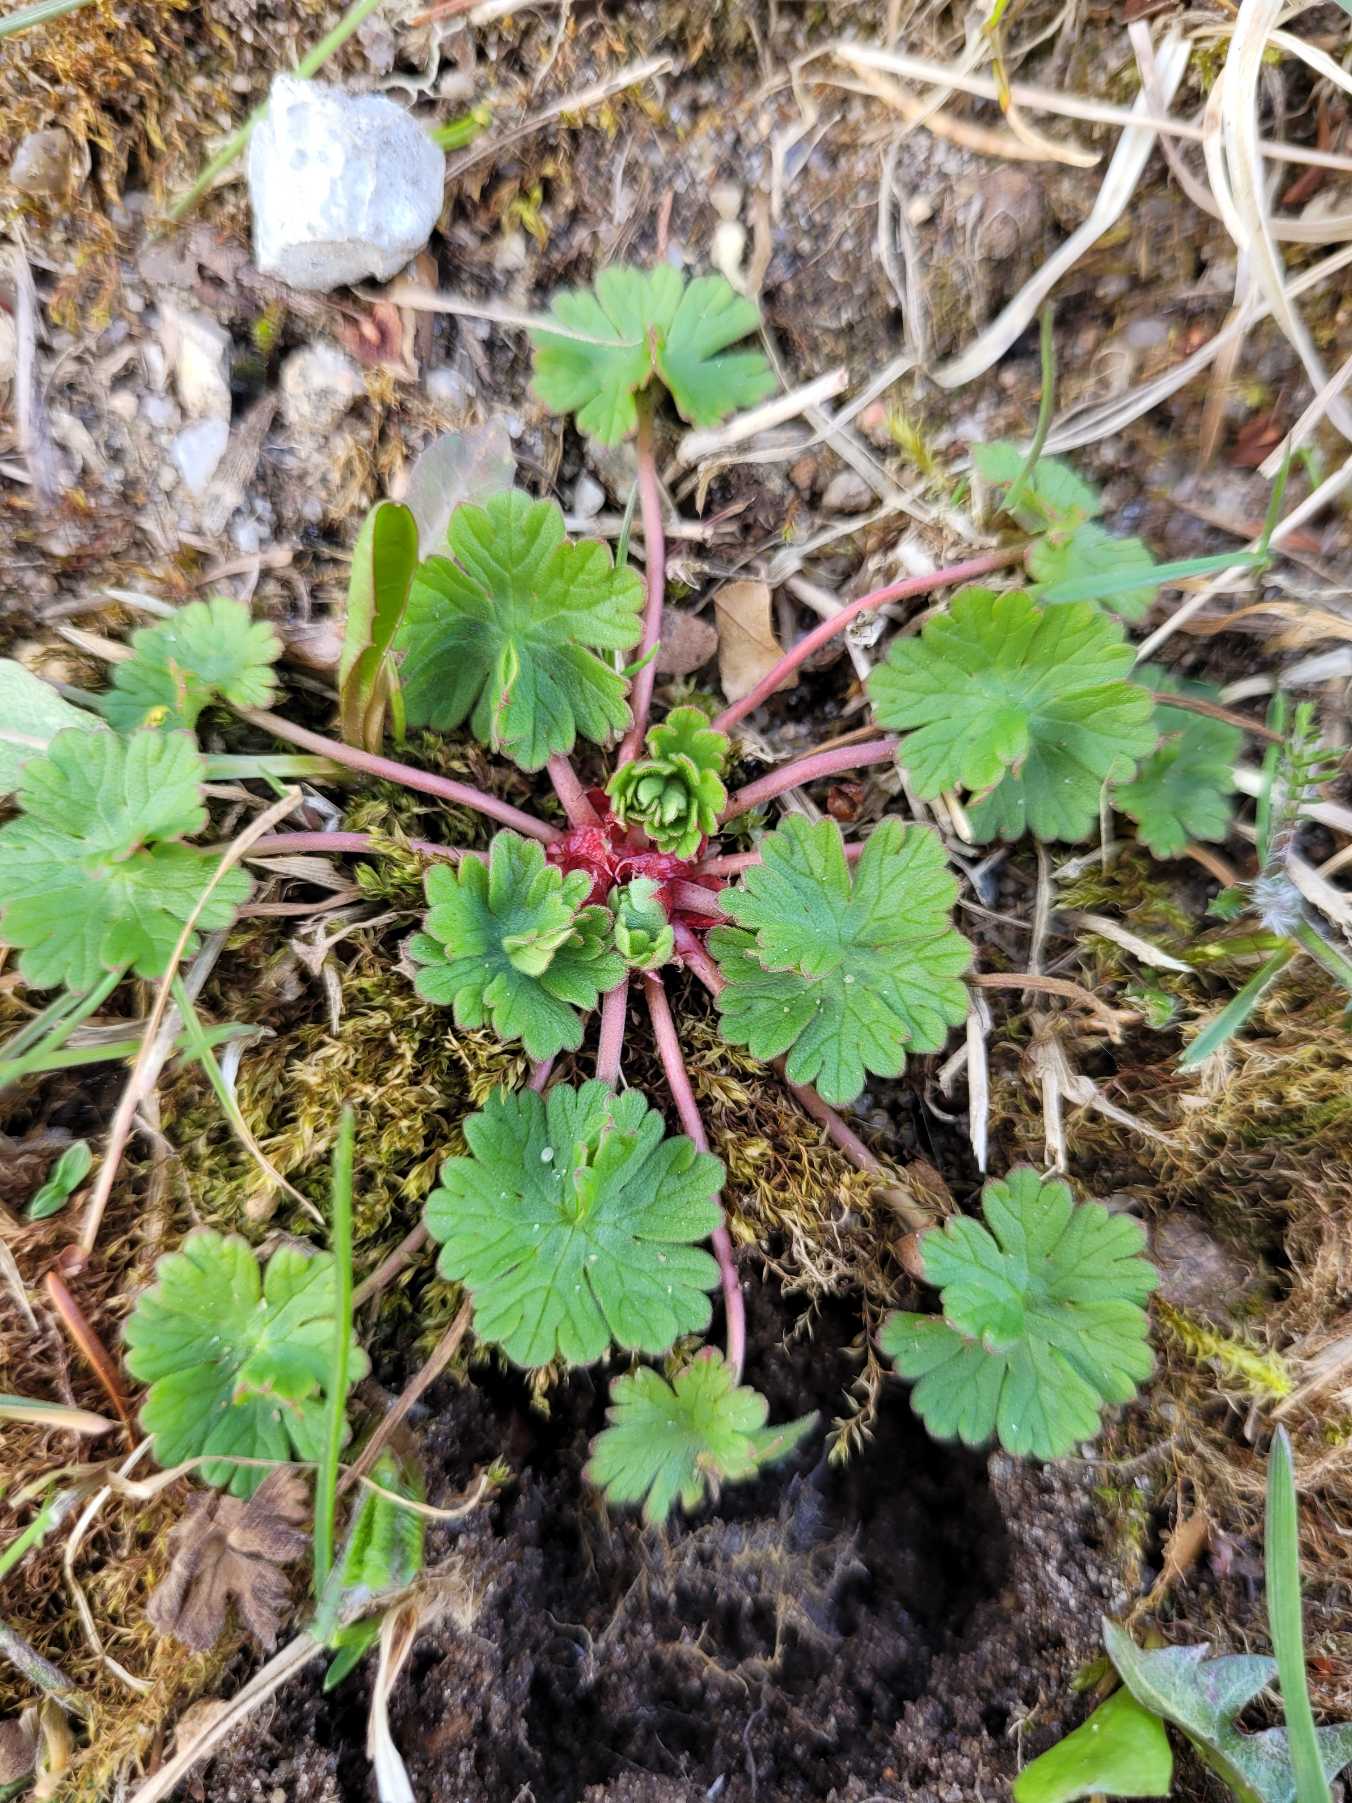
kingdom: Plantae
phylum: Tracheophyta
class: Magnoliopsida
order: Geraniales
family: Geraniaceae
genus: Geranium
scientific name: Geranium pusillum
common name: Liden storkenæb
